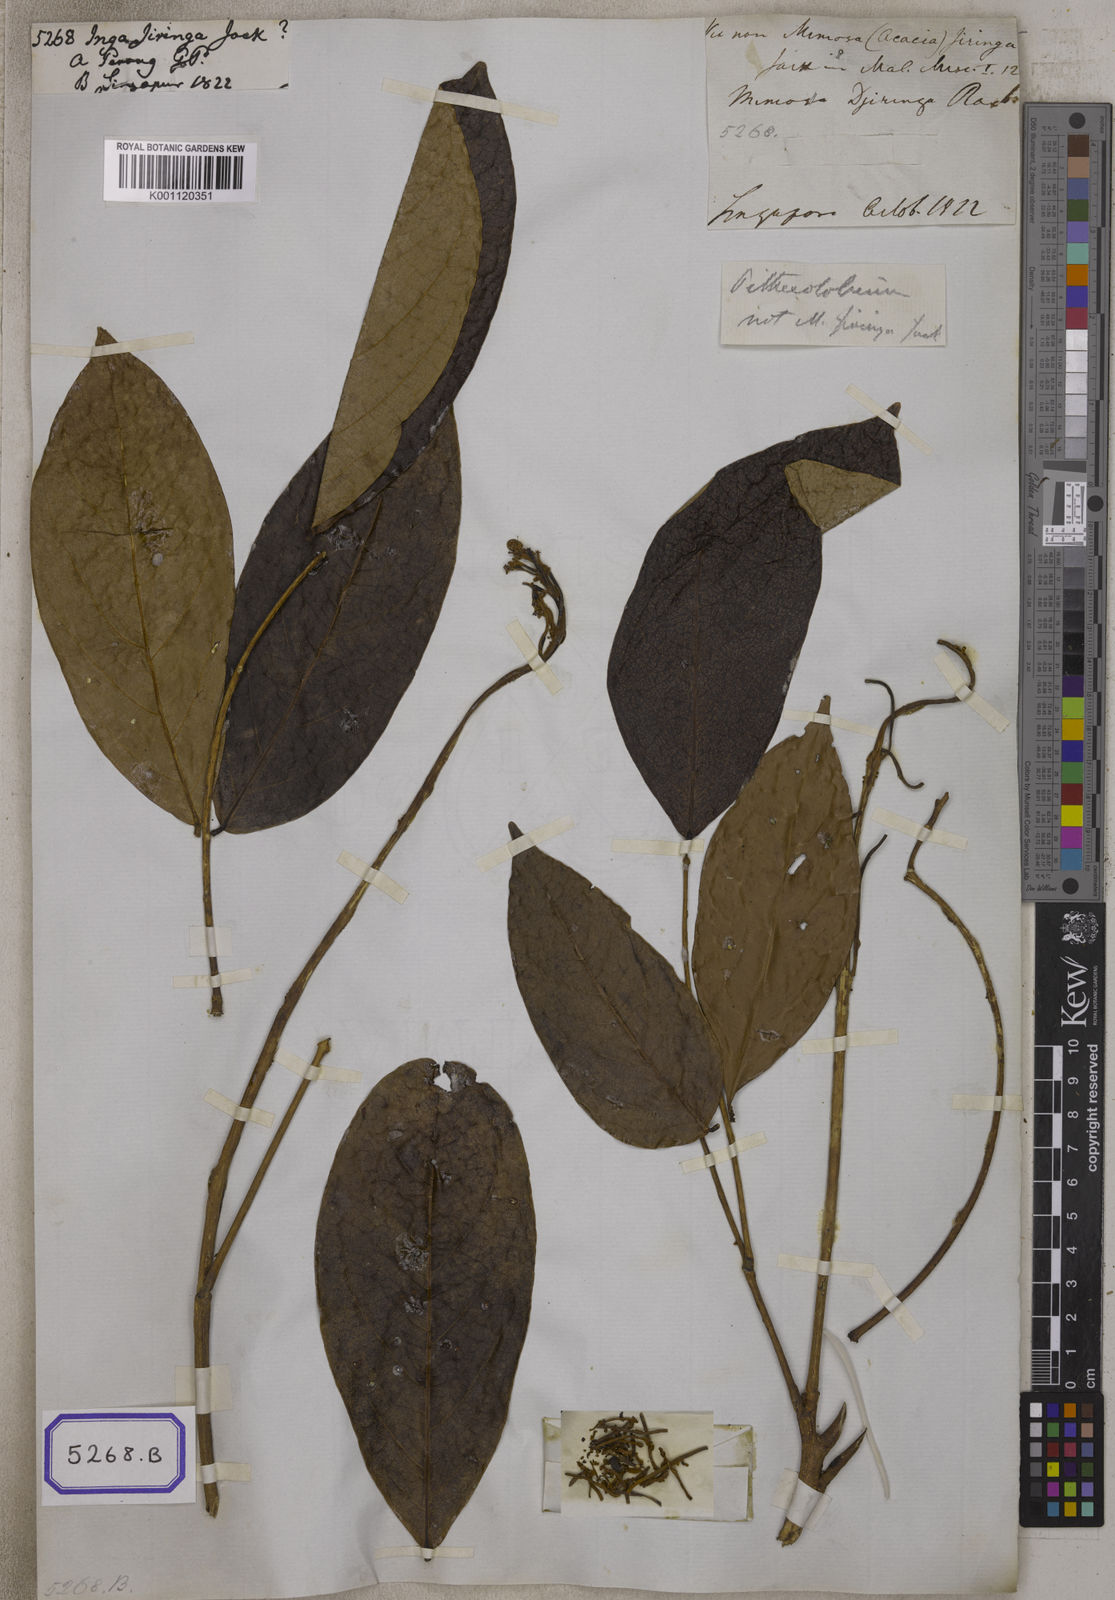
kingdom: Plantae
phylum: Tracheophyta
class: Magnoliopsida
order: Fabales
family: Fabaceae
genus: Archidendron
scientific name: Archidendron jiringa
